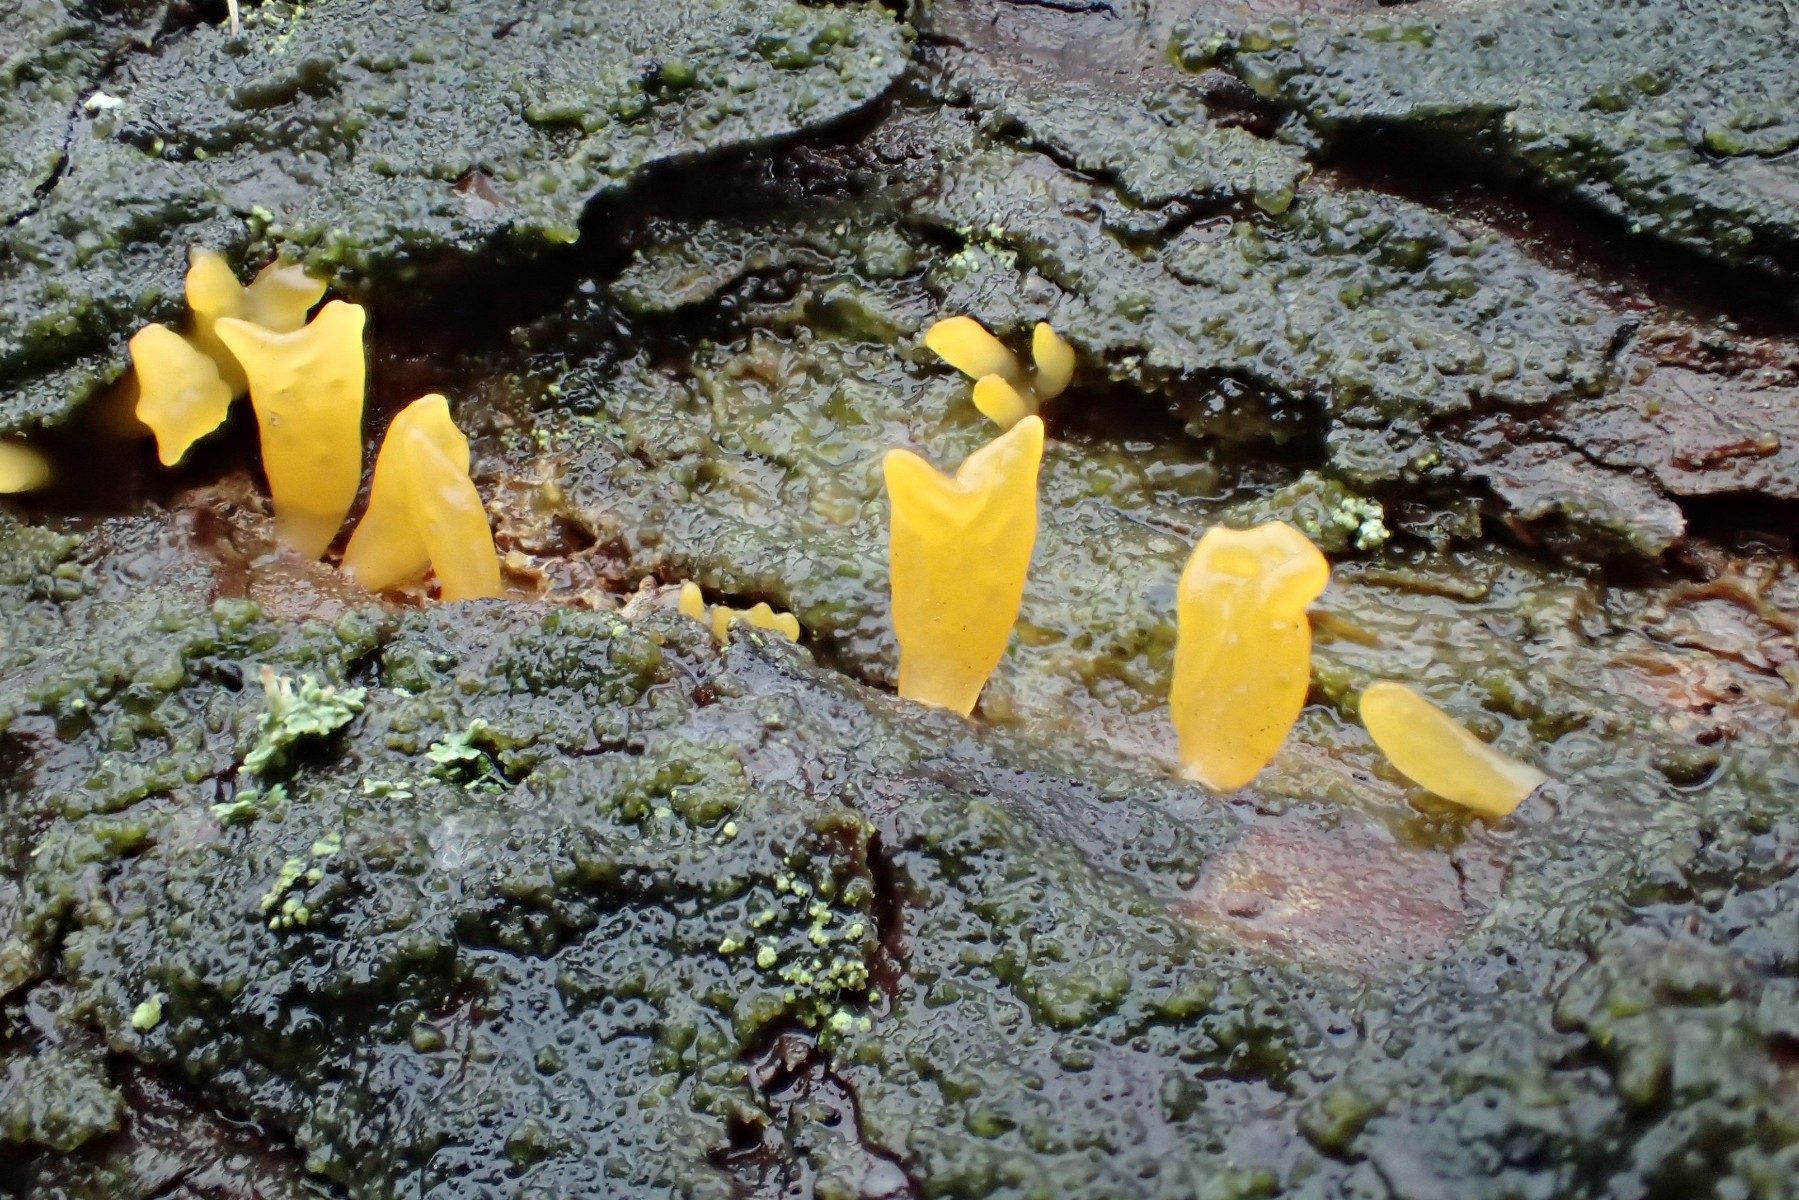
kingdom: Fungi
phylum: Basidiomycota
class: Dacrymycetes
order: Dacrymycetales
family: Dacrymycetaceae
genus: Calocera
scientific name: Calocera furcata
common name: fyrre-guldgaffel
